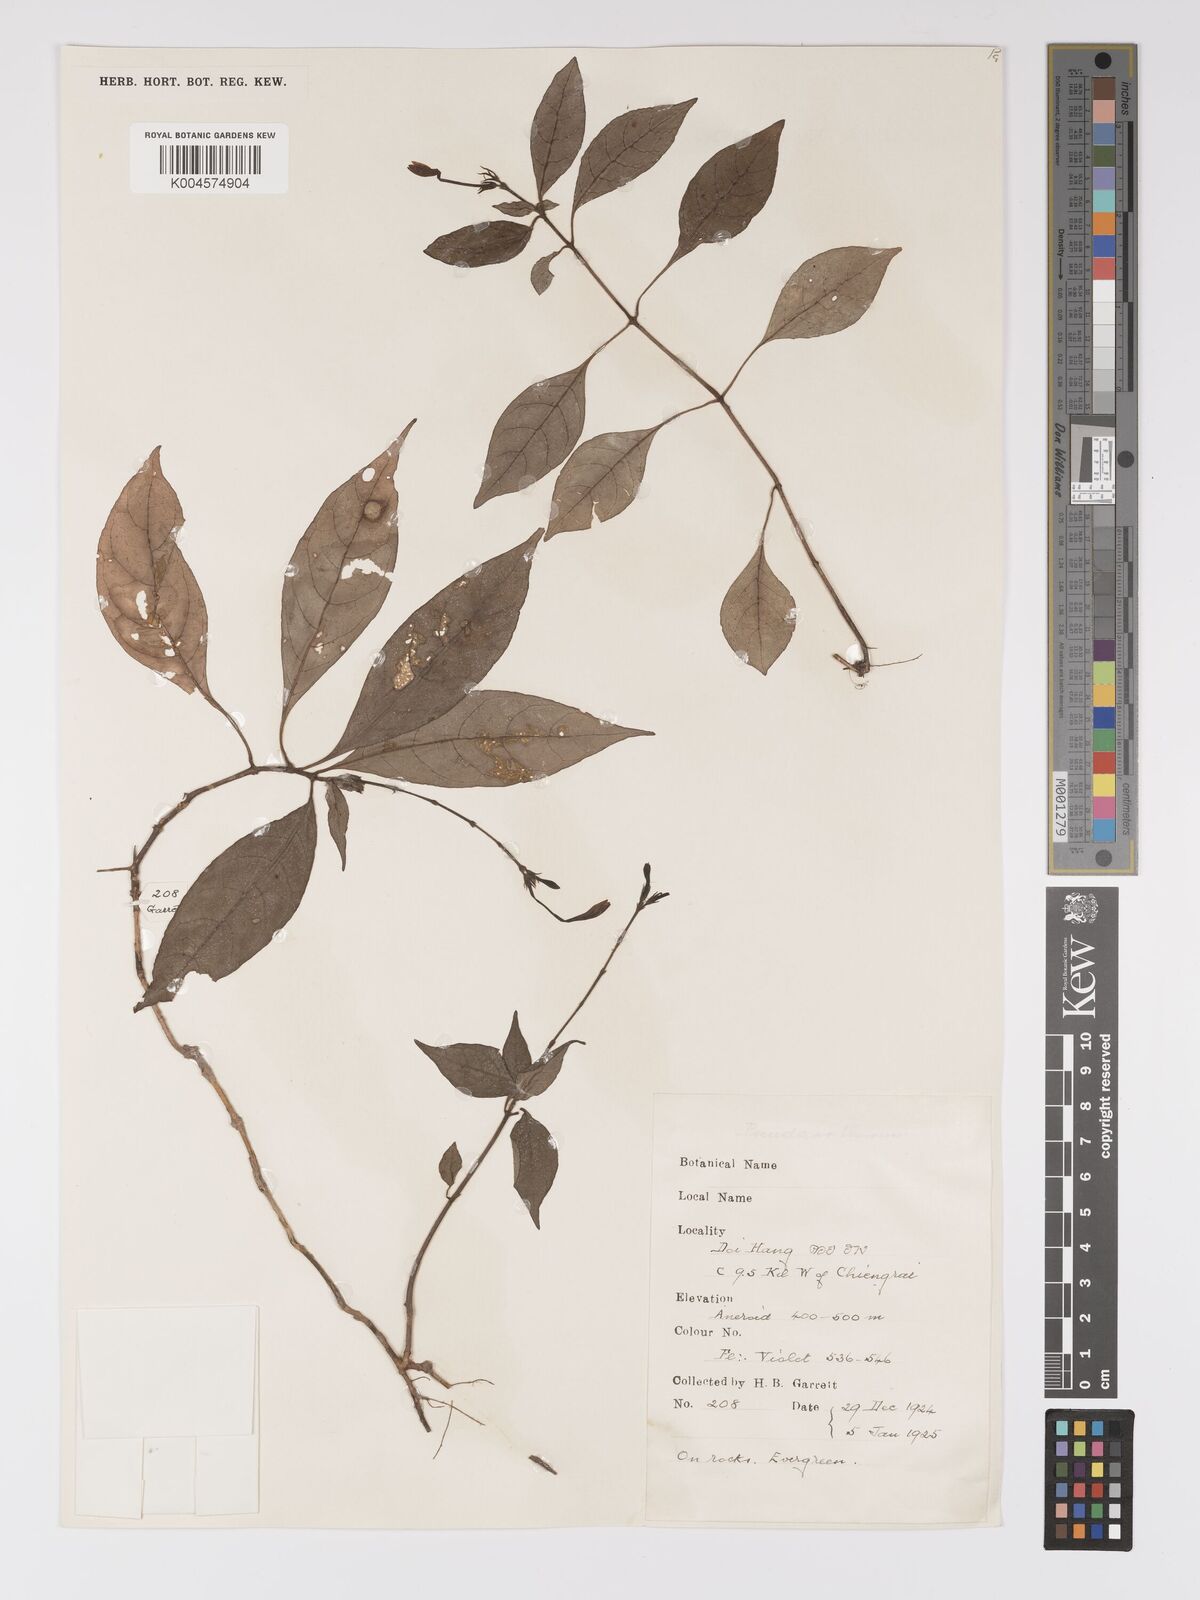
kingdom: Plantae
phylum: Tracheophyta
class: Magnoliopsida
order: Lamiales
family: Acanthaceae
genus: Pseuderanthemum
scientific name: Pseuderanthemum
